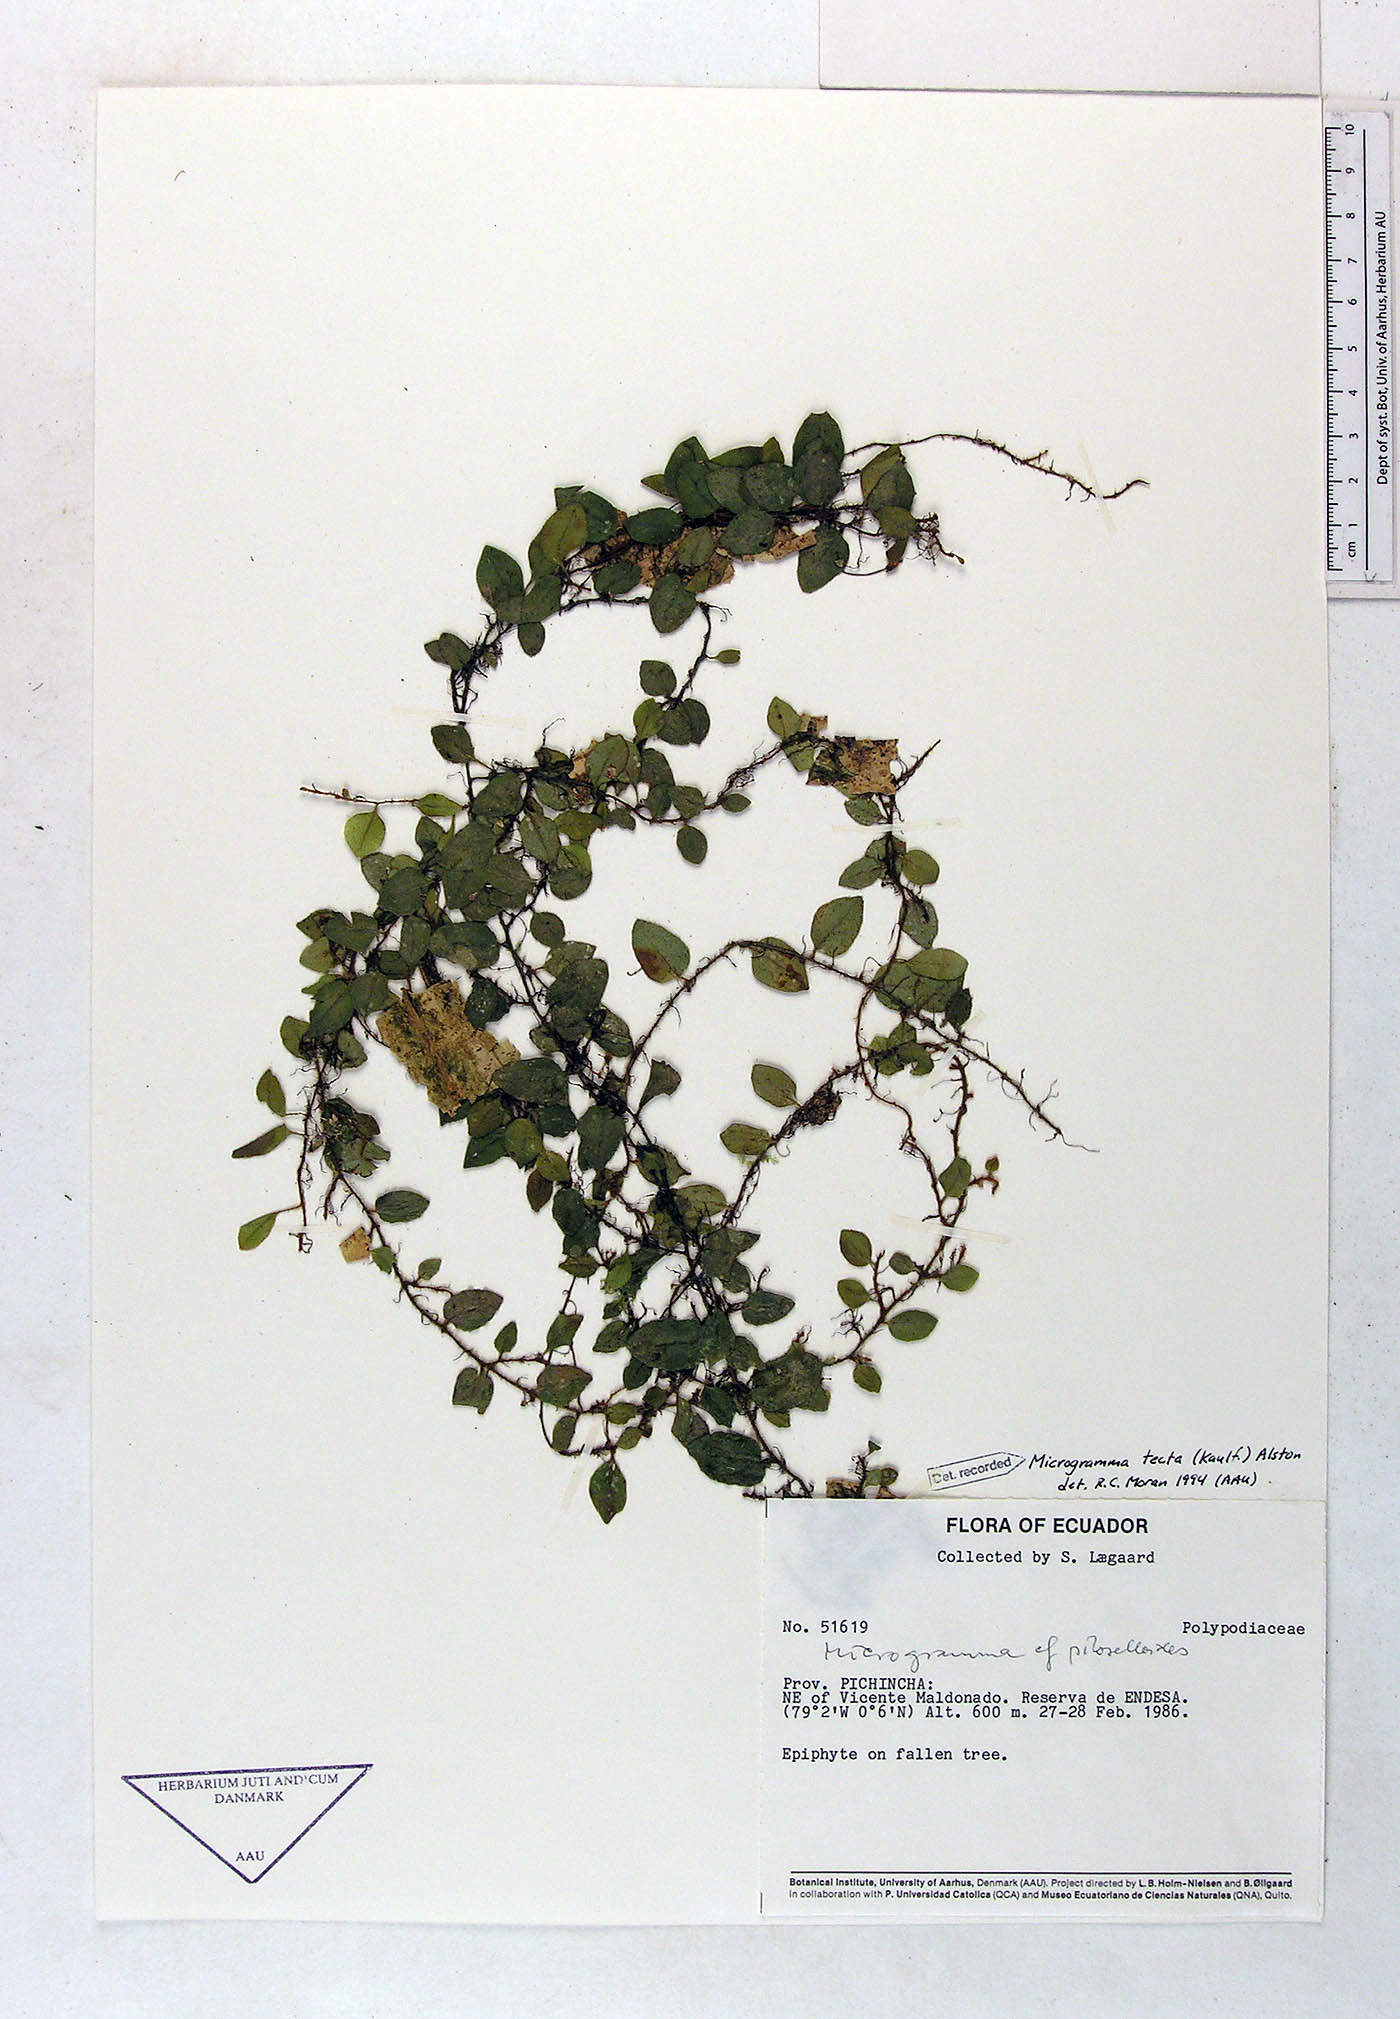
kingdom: Plantae
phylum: Tracheophyta
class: Polypodiopsida
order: Polypodiales
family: Polypodiaceae
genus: Microgramma
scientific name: Microgramma tecta
